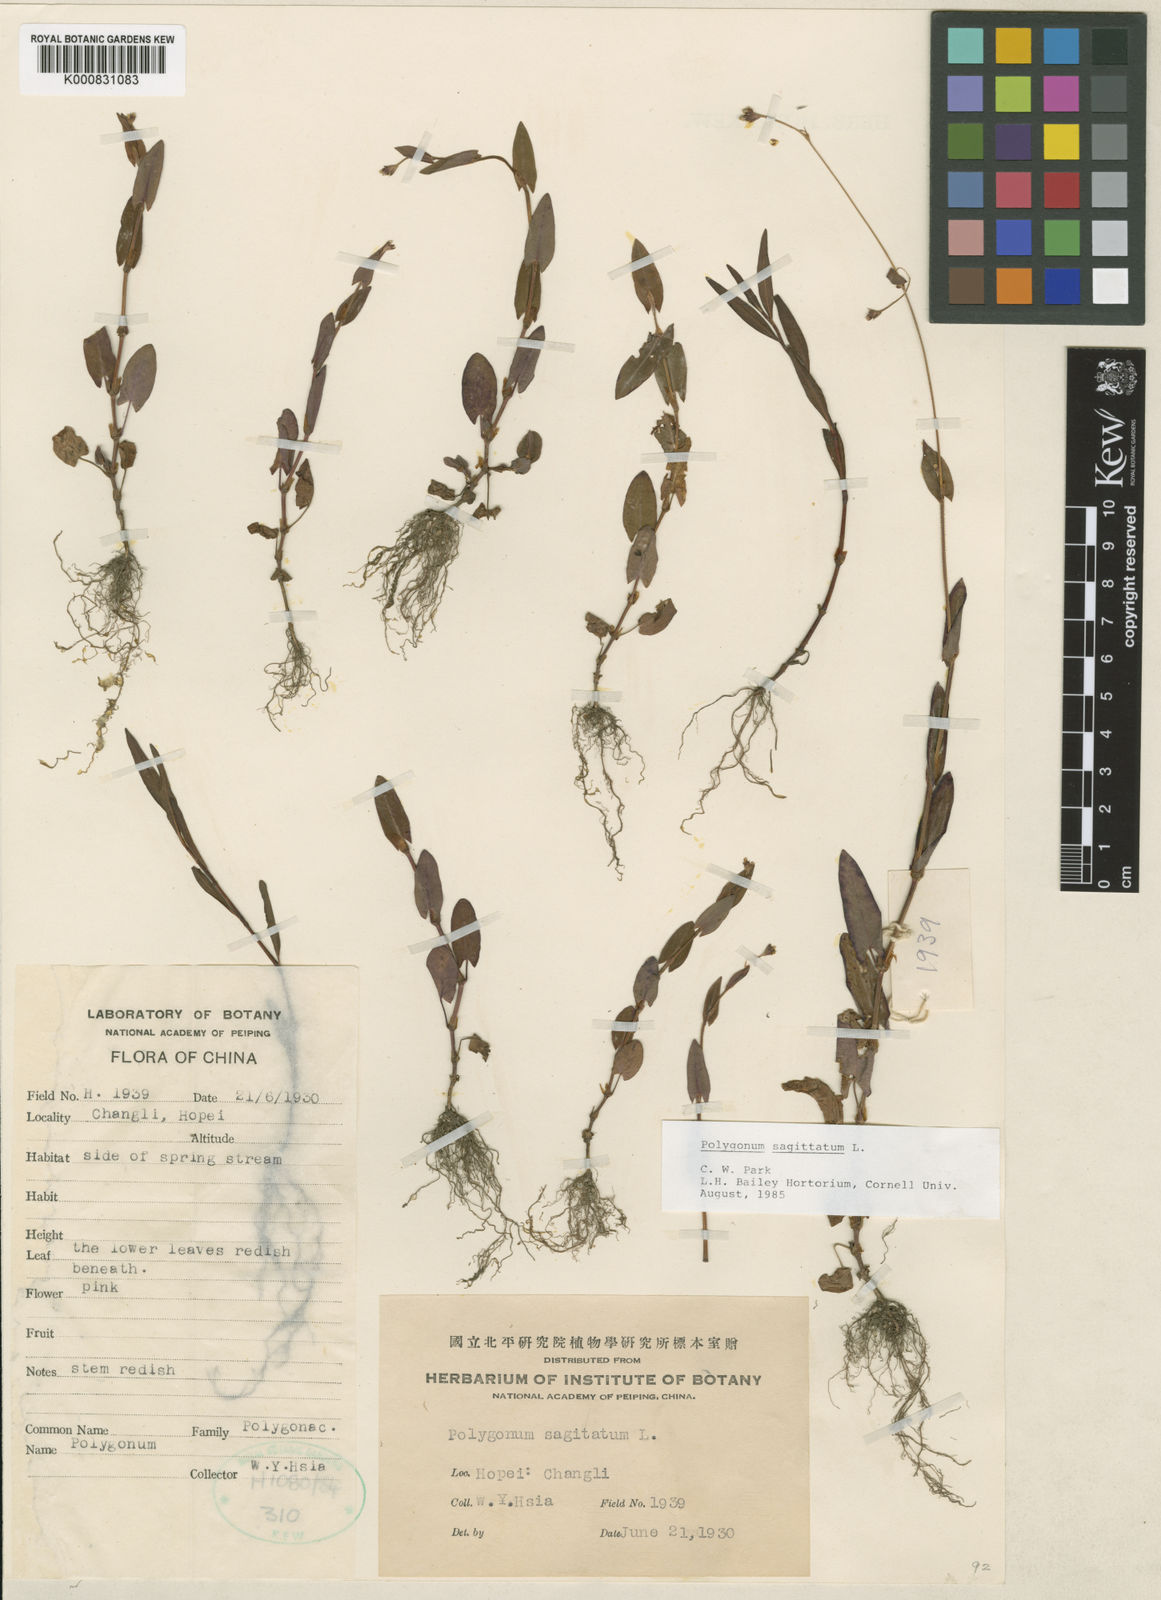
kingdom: Plantae
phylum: Tracheophyta
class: Magnoliopsida
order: Caryophyllales
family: Polygonaceae
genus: Persicaria
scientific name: Persicaria sagittata
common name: American tearthumb
